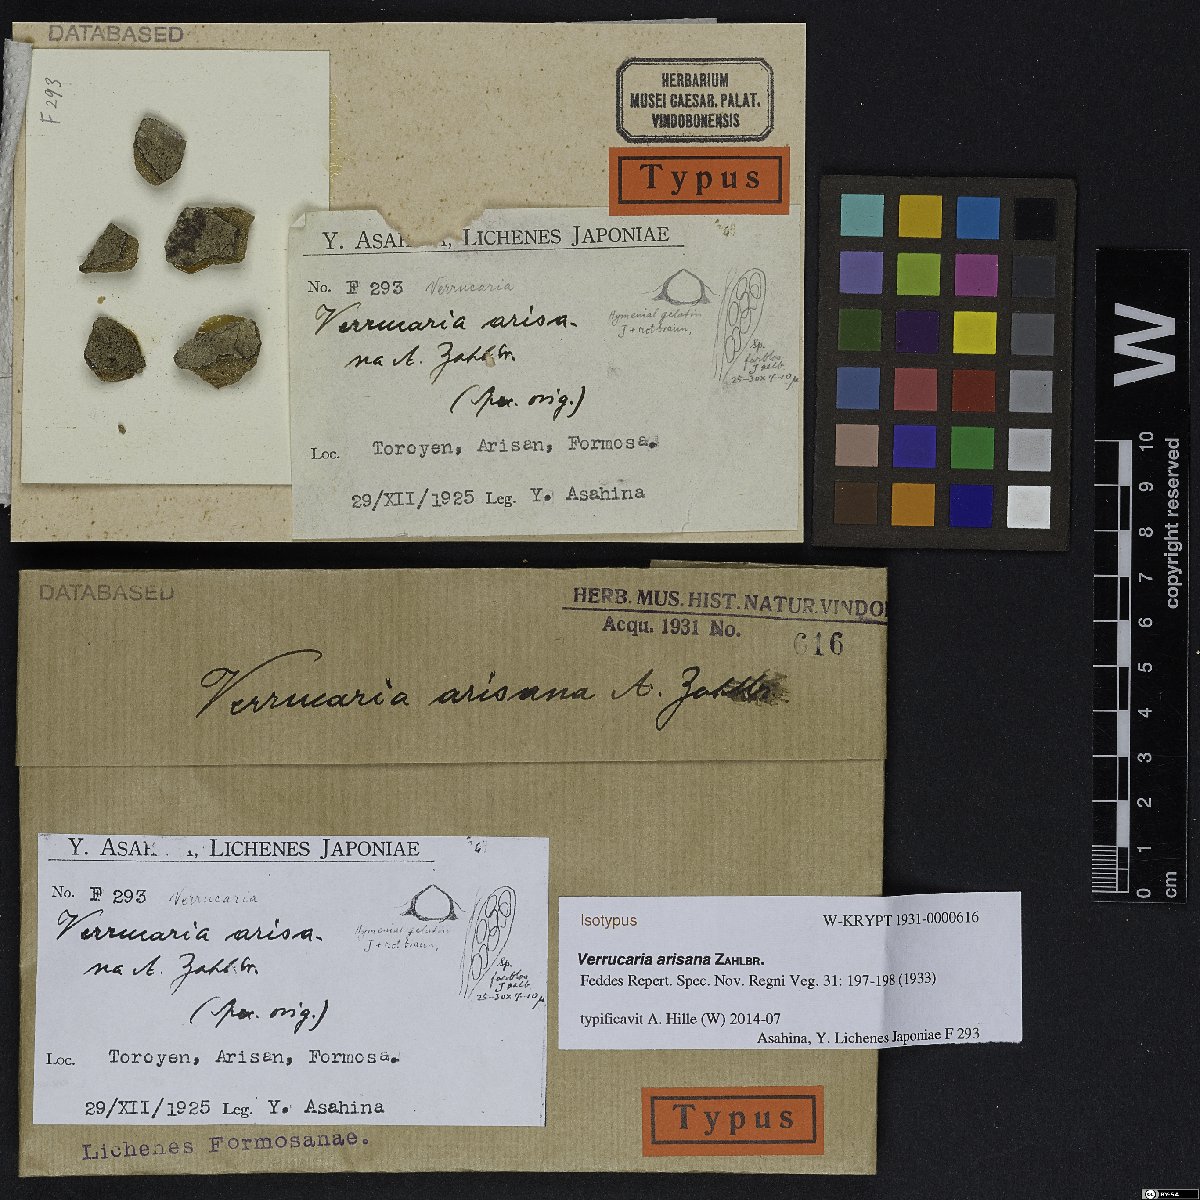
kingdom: Fungi
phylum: Ascomycota
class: Eurotiomycetes
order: Verrucariales
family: Verrucariaceae
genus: Verrucaria
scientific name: Verrucaria arisana
